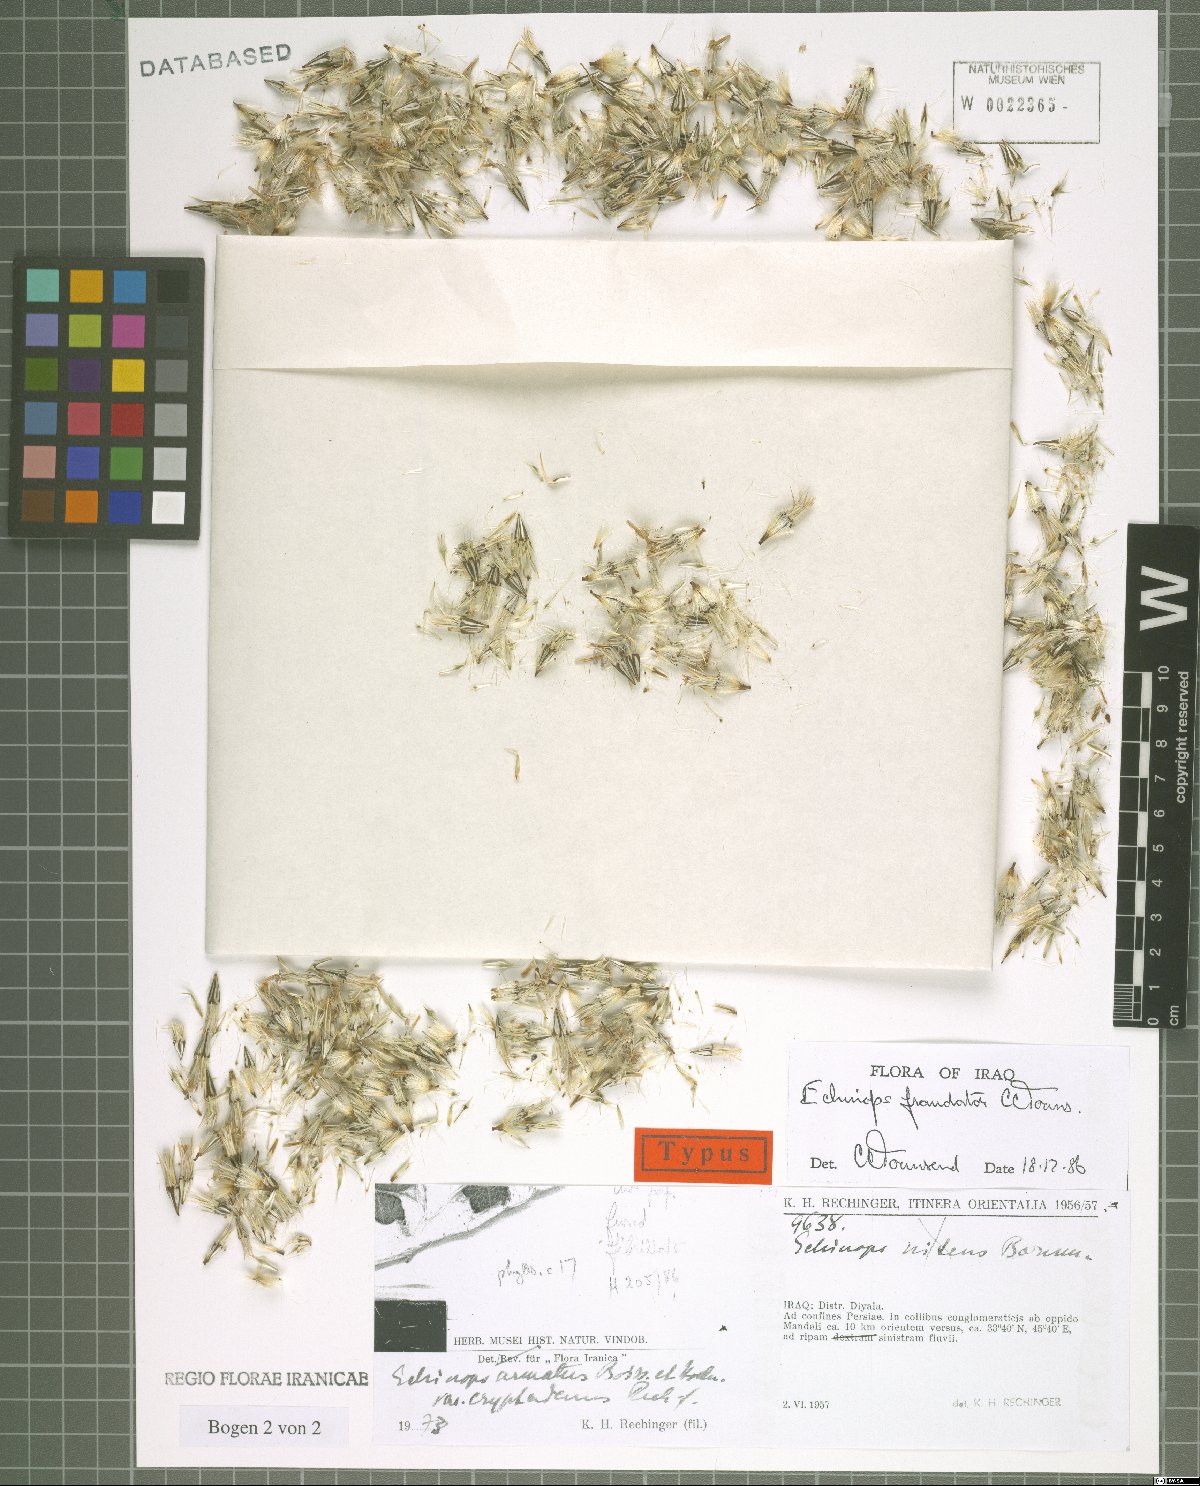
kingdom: Plantae
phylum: Tracheophyta
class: Magnoliopsida
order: Asterales
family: Asteraceae
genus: Echinops
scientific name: Echinops fraudator
